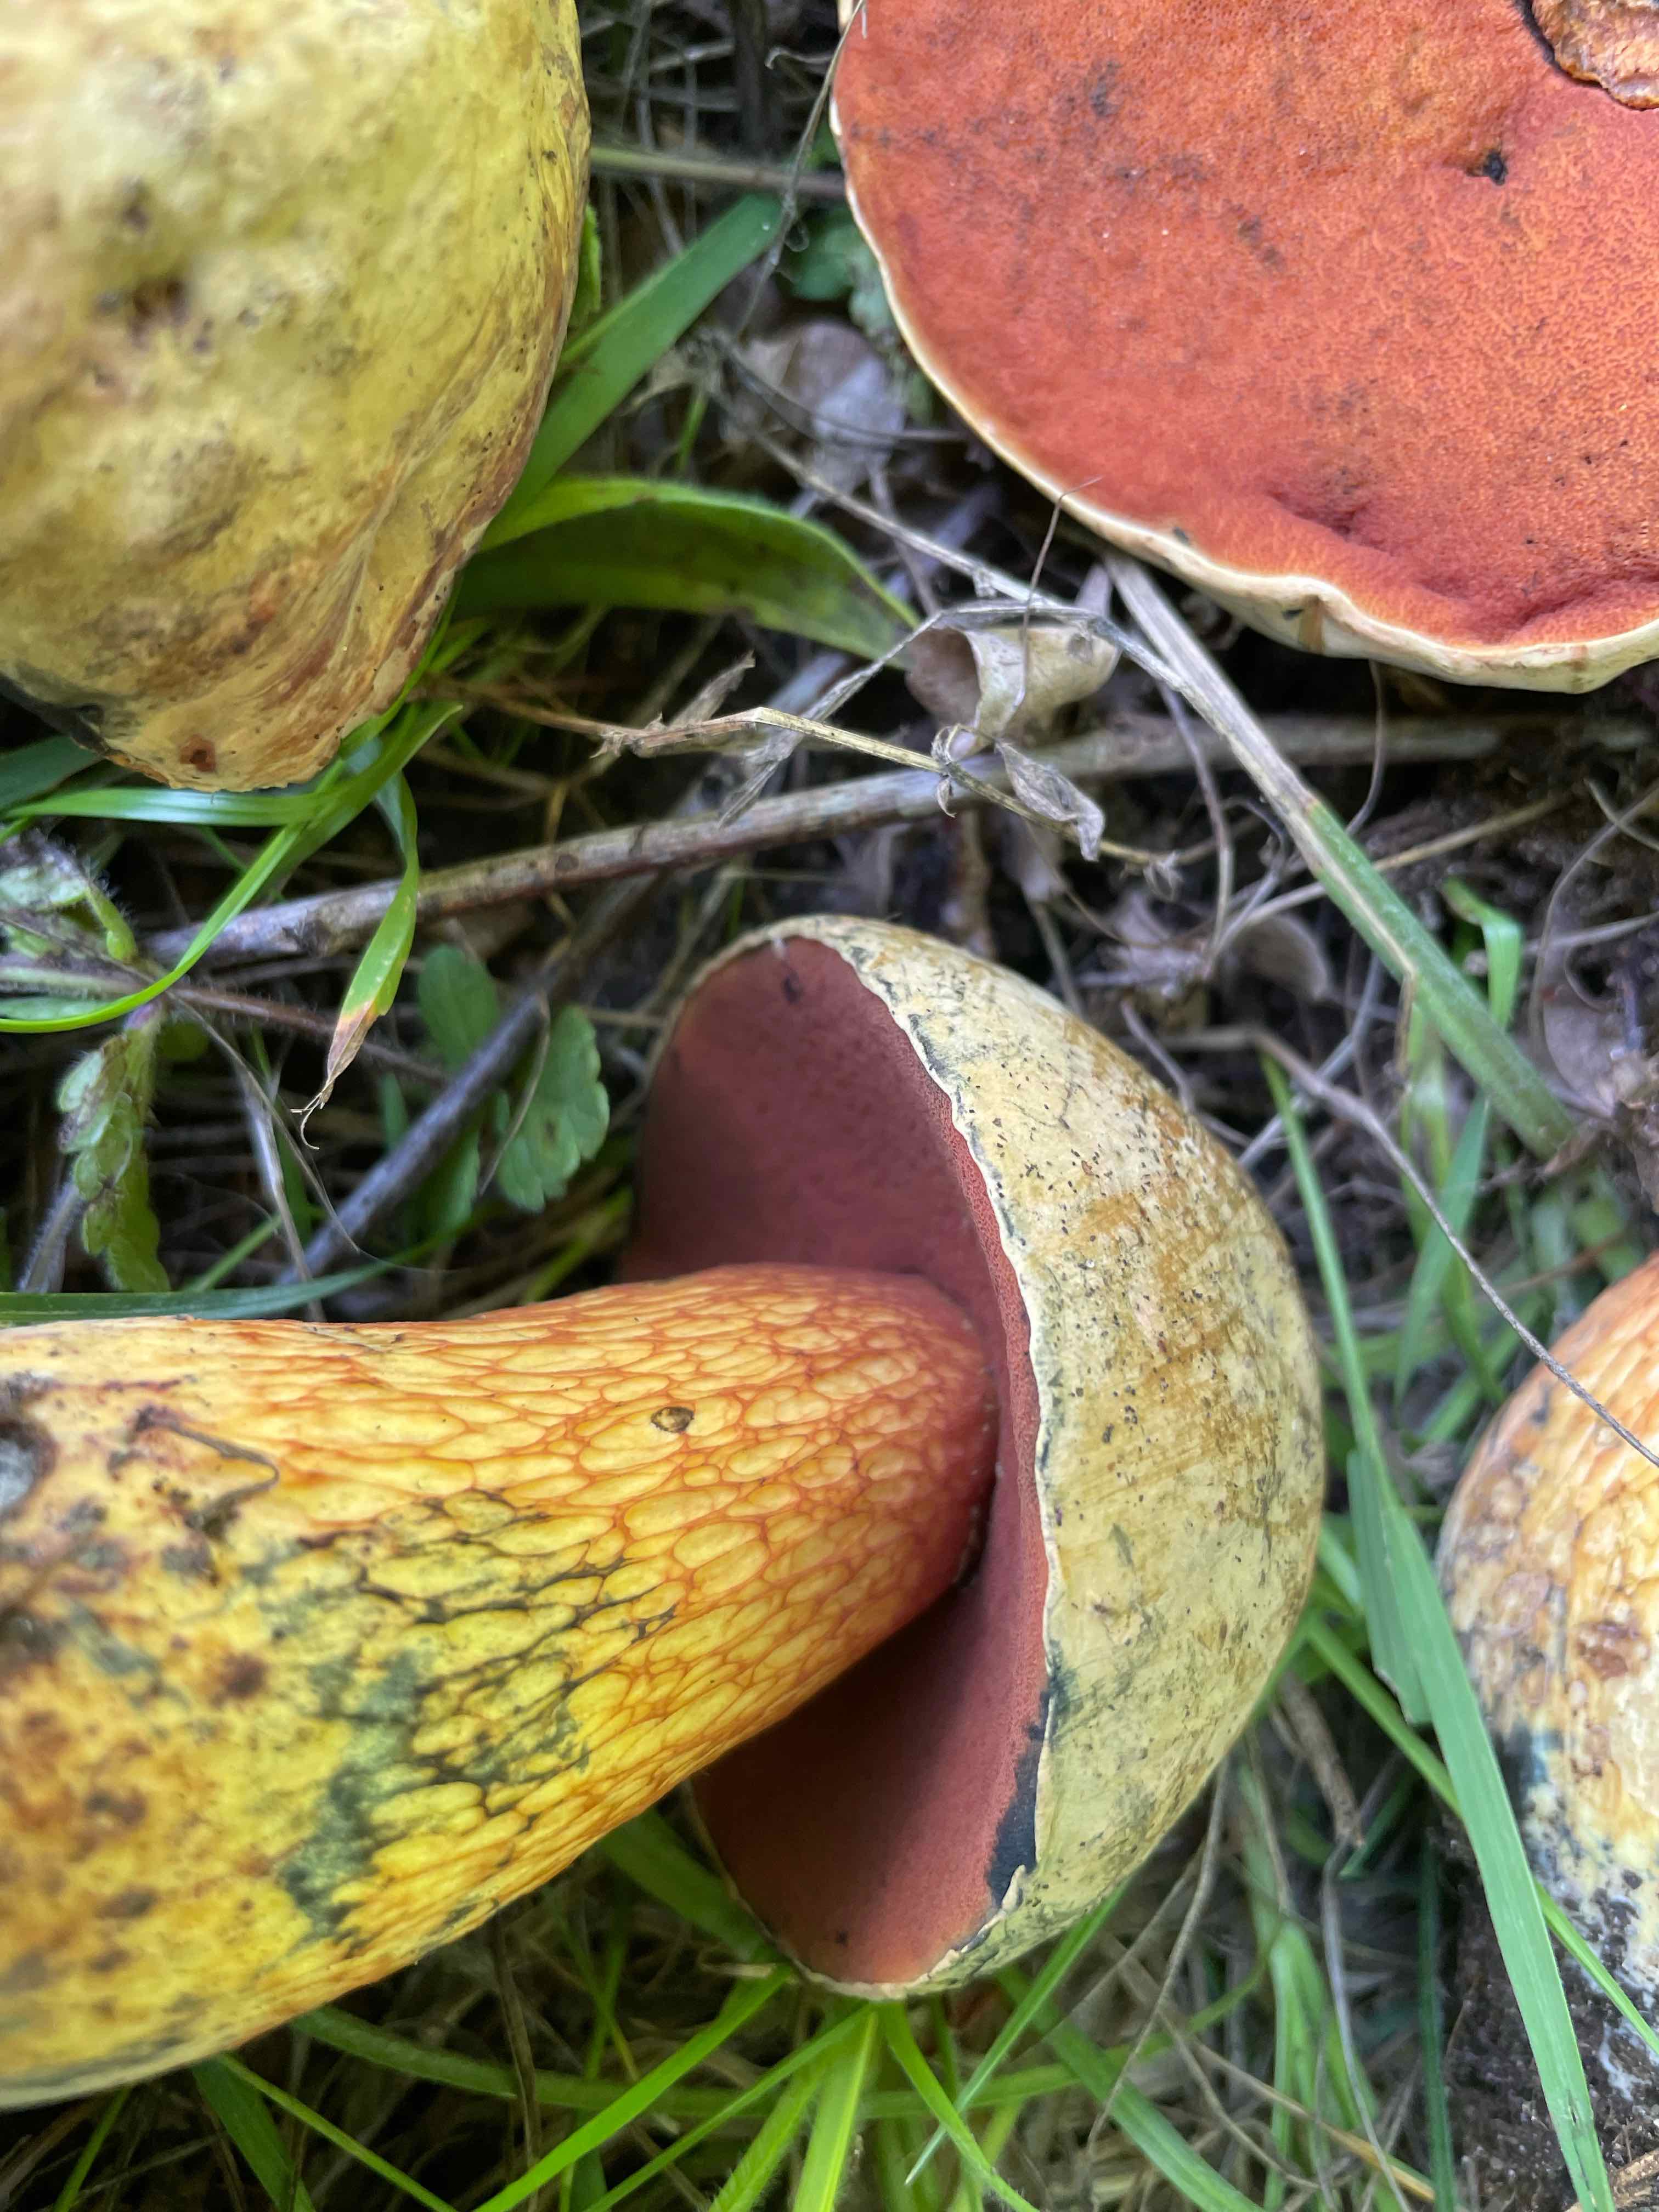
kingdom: Fungi
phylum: Basidiomycota
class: Agaricomycetes
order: Boletales
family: Boletaceae
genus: Suillellus
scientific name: Suillellus luridus
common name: netstokket indigorørhat
